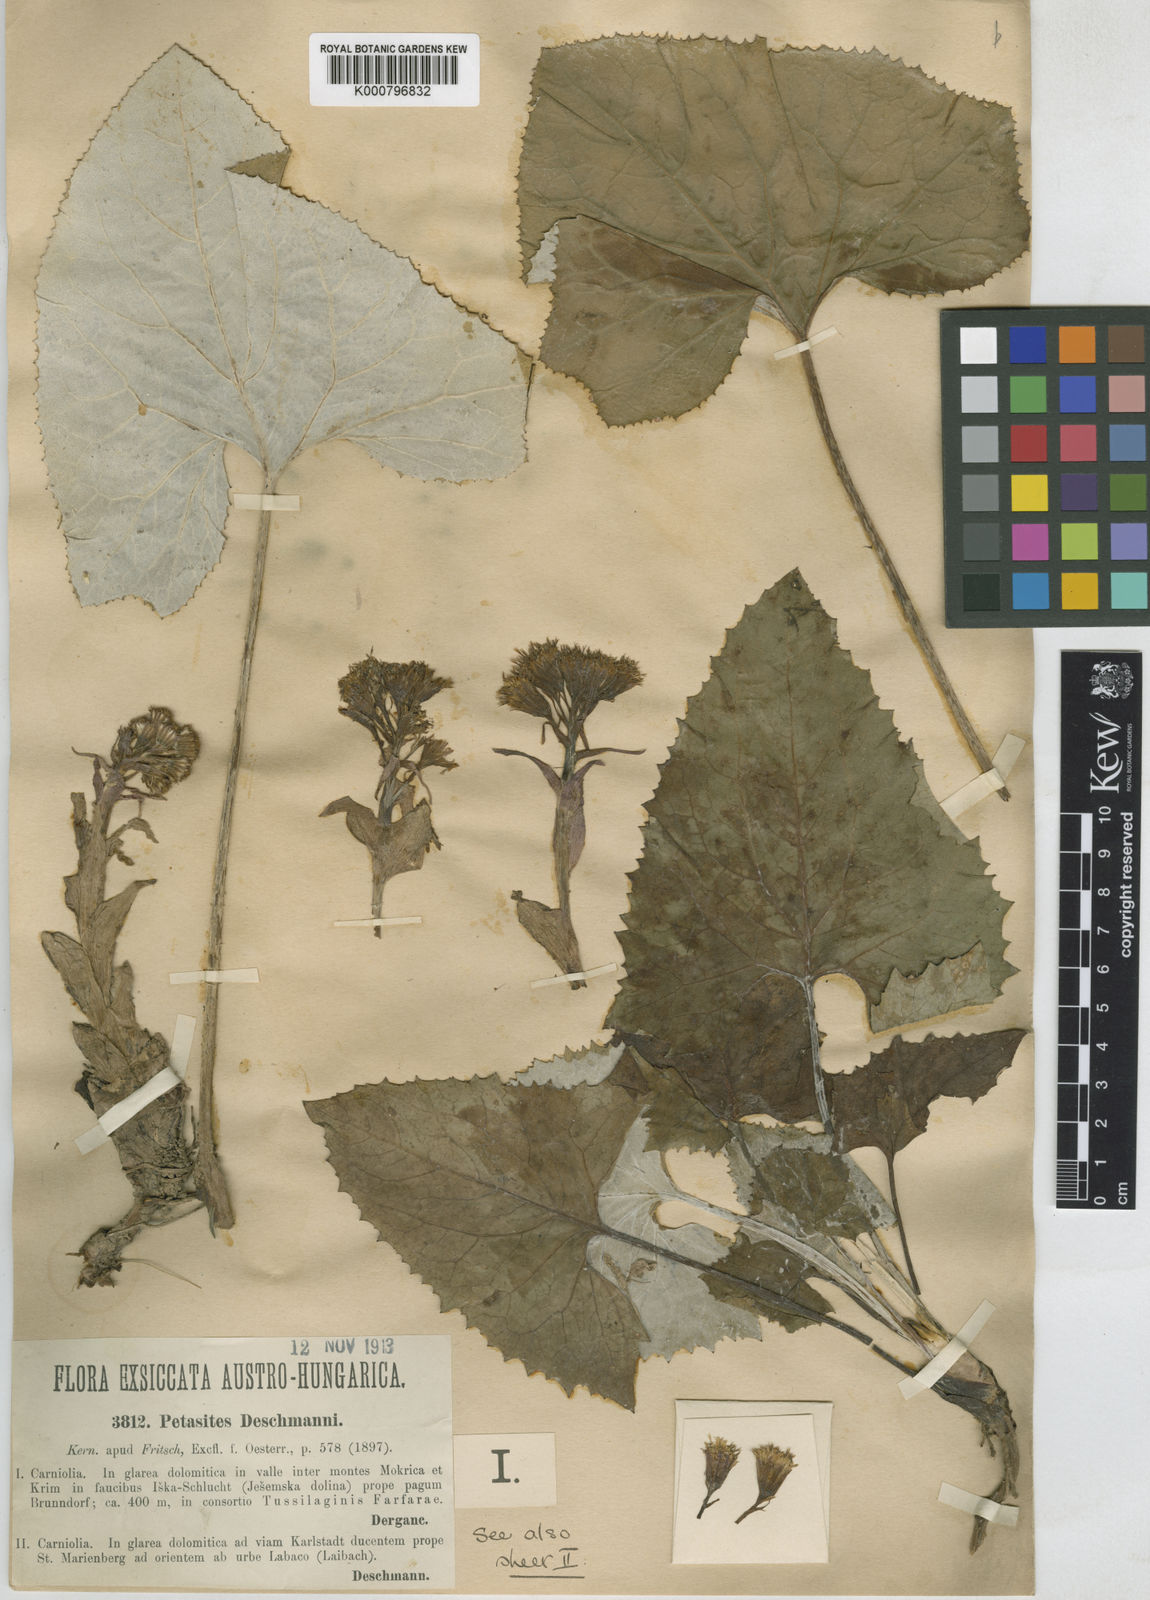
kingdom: Plantae
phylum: Tracheophyta
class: Magnoliopsida
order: Asterales
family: Asteraceae
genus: Petasites
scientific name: Petasites deschmannii
